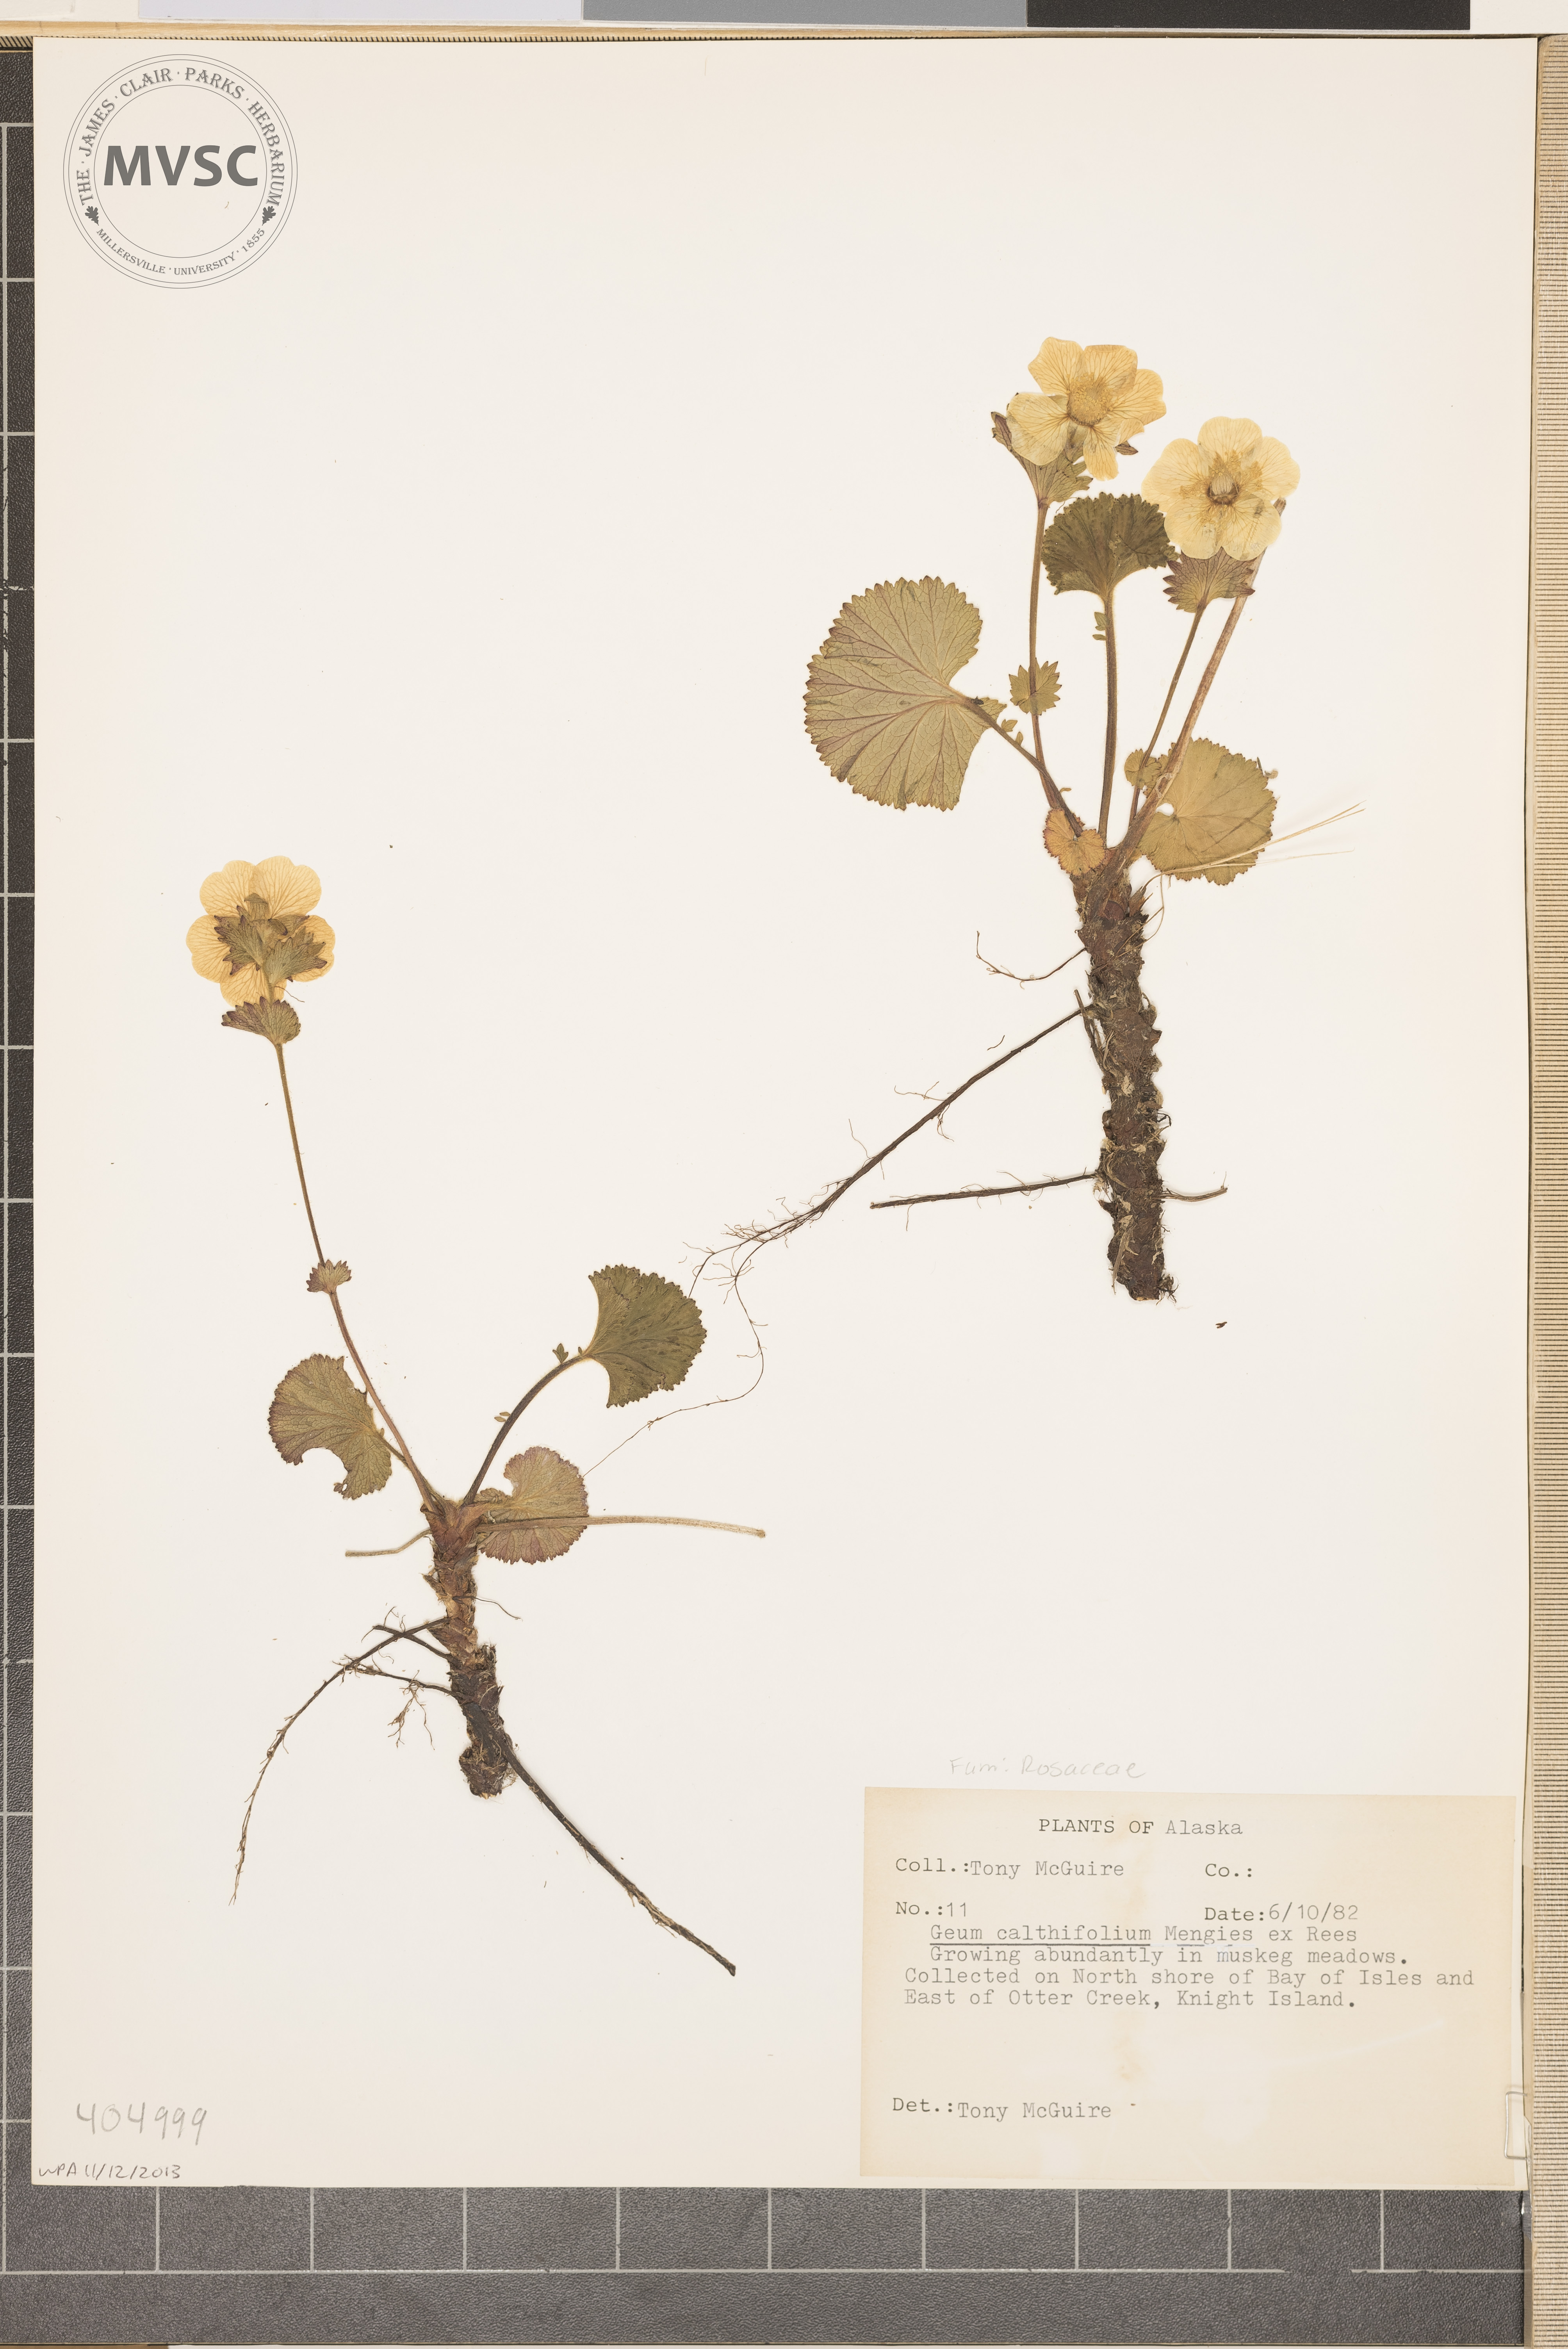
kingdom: Plantae
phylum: Tracheophyta
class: Magnoliopsida
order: Rosales
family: Rosaceae
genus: Geum
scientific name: Geum calthifolium
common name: Caltha-leaved avens
